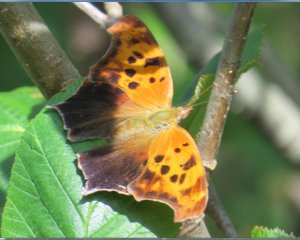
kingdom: Animalia
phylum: Arthropoda
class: Insecta
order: Lepidoptera
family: Nymphalidae
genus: Polygonia
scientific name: Polygonia interrogationis
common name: Question Mark
